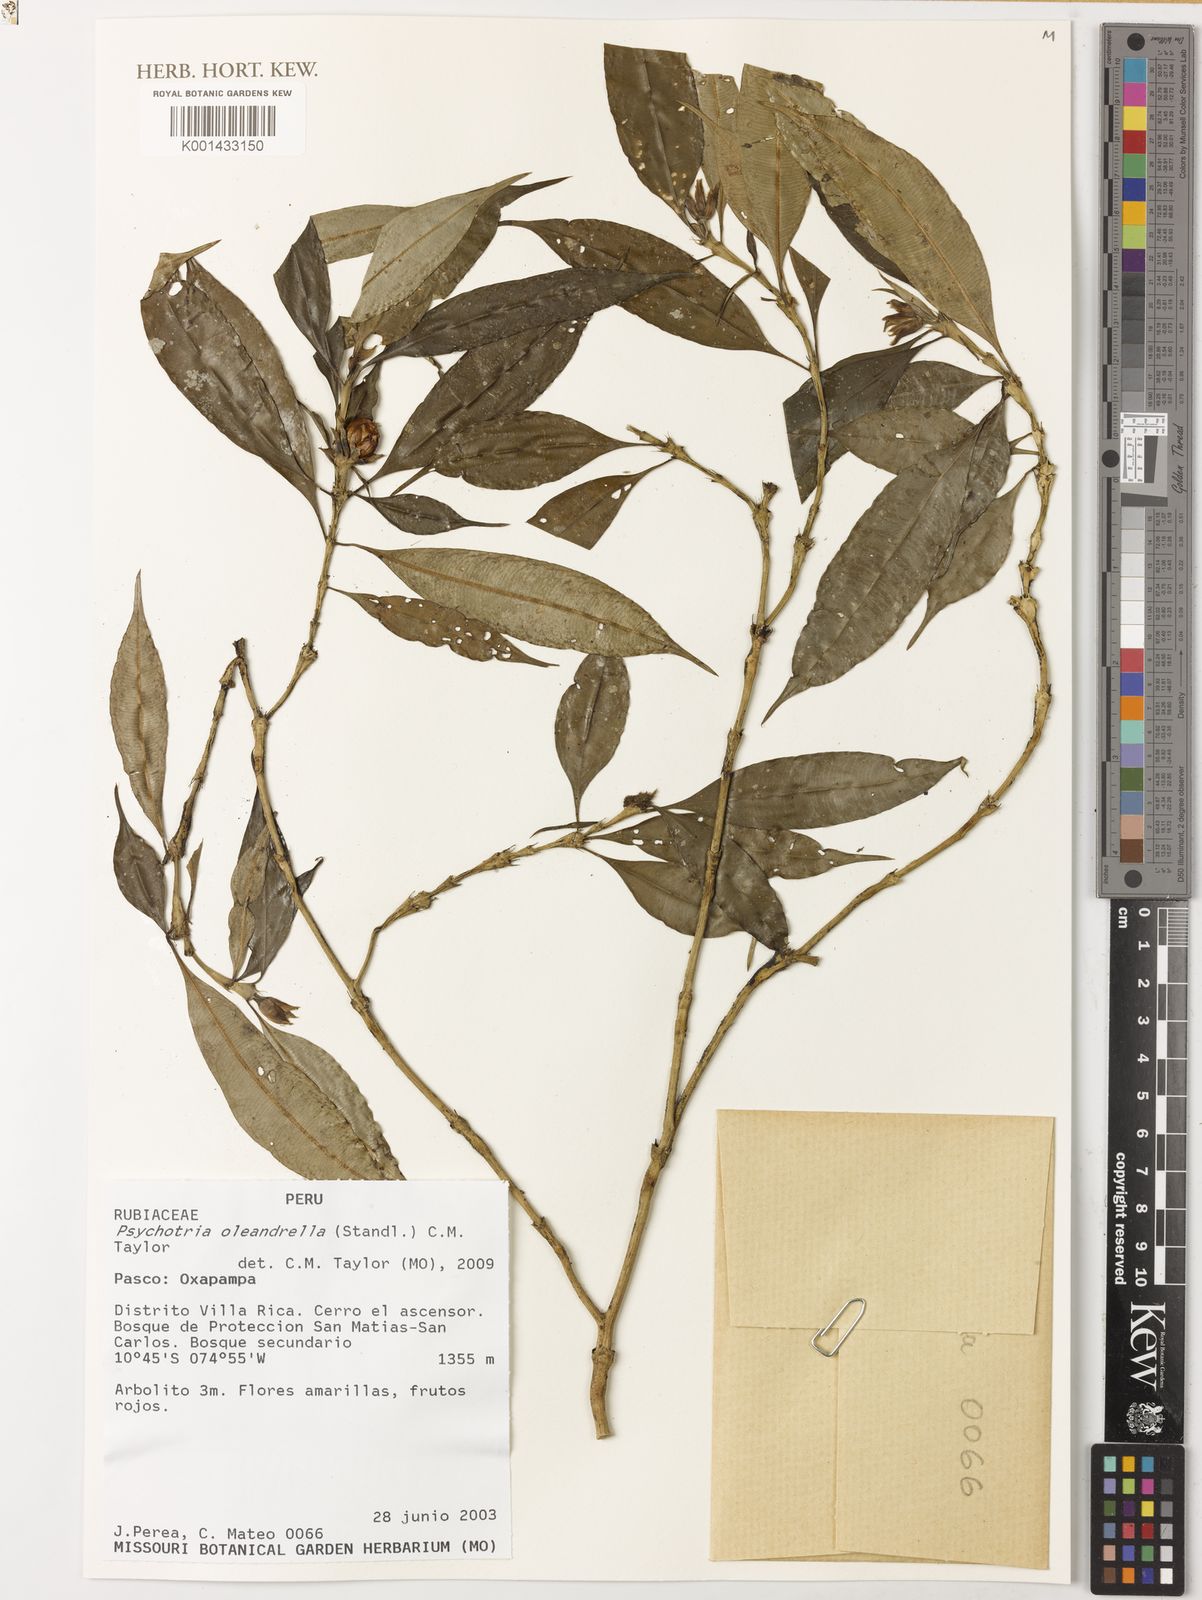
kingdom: Plantae
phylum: Tracheophyta
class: Magnoliopsida
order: Gentianales
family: Rubiaceae
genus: Palicourea
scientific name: Palicourea oleandrella
